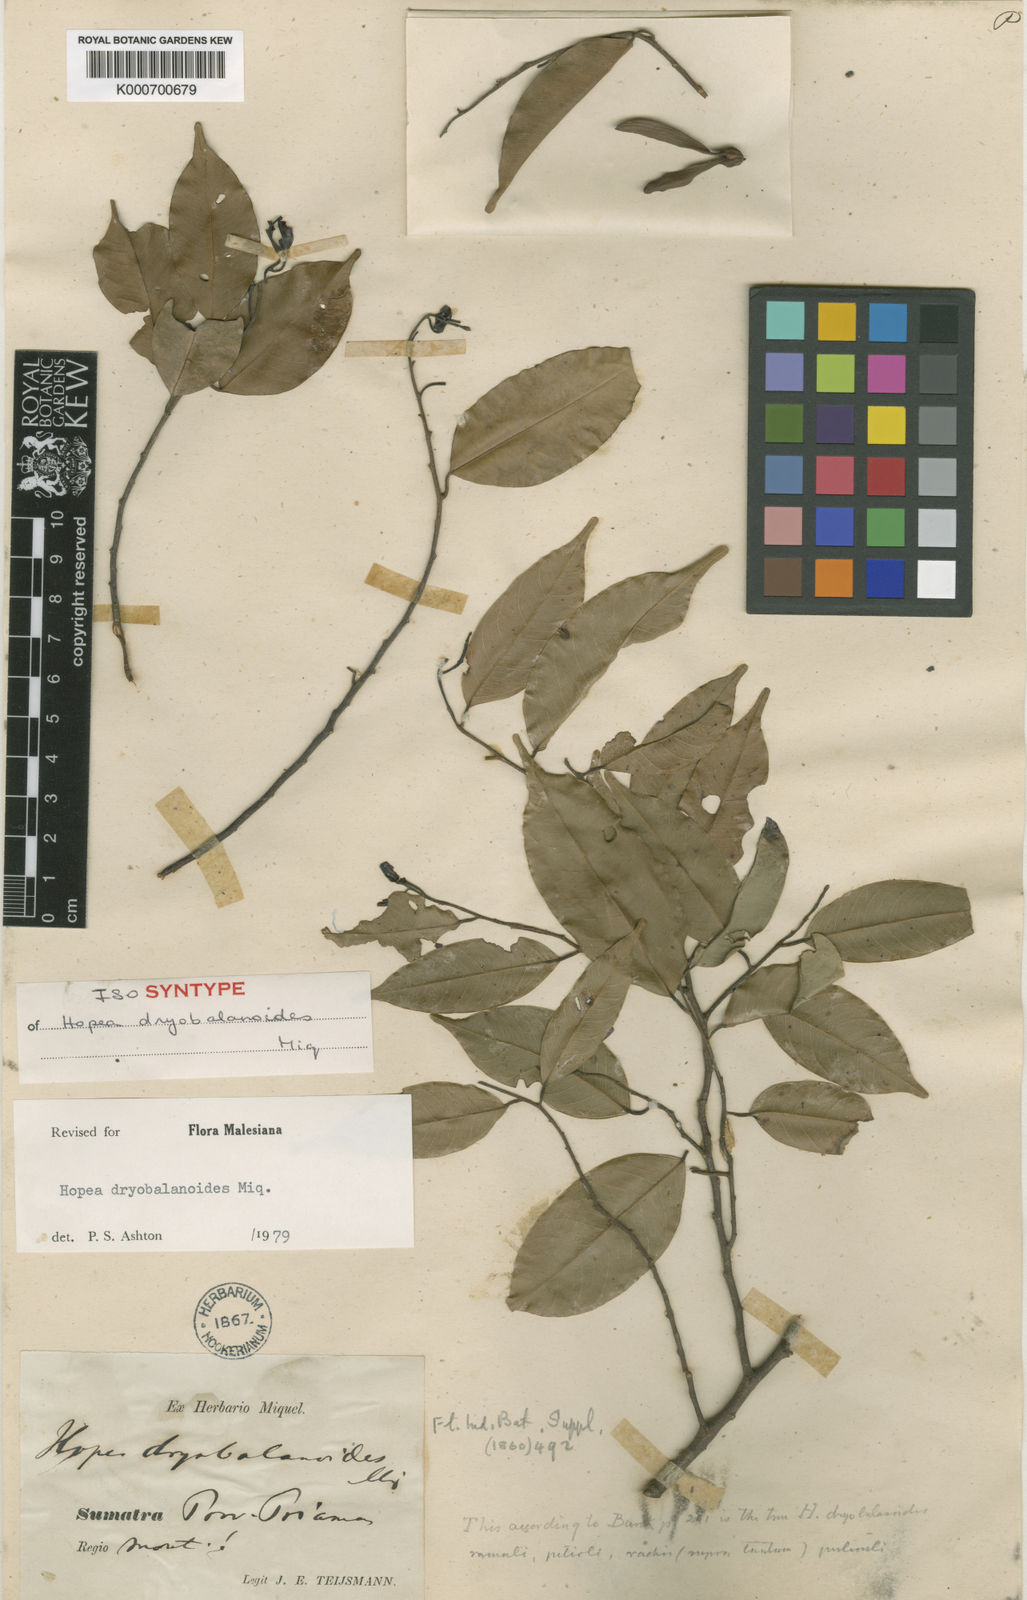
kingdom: Plantae
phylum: Tracheophyta
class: Magnoliopsida
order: Malvales
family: Dipterocarpaceae
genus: Hopea
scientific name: Hopea dryobalanoides
